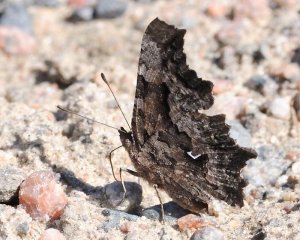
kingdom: Animalia
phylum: Arthropoda
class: Insecta
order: Lepidoptera
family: Nymphalidae
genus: Polygonia
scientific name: Polygonia faunus
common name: Green Comma
